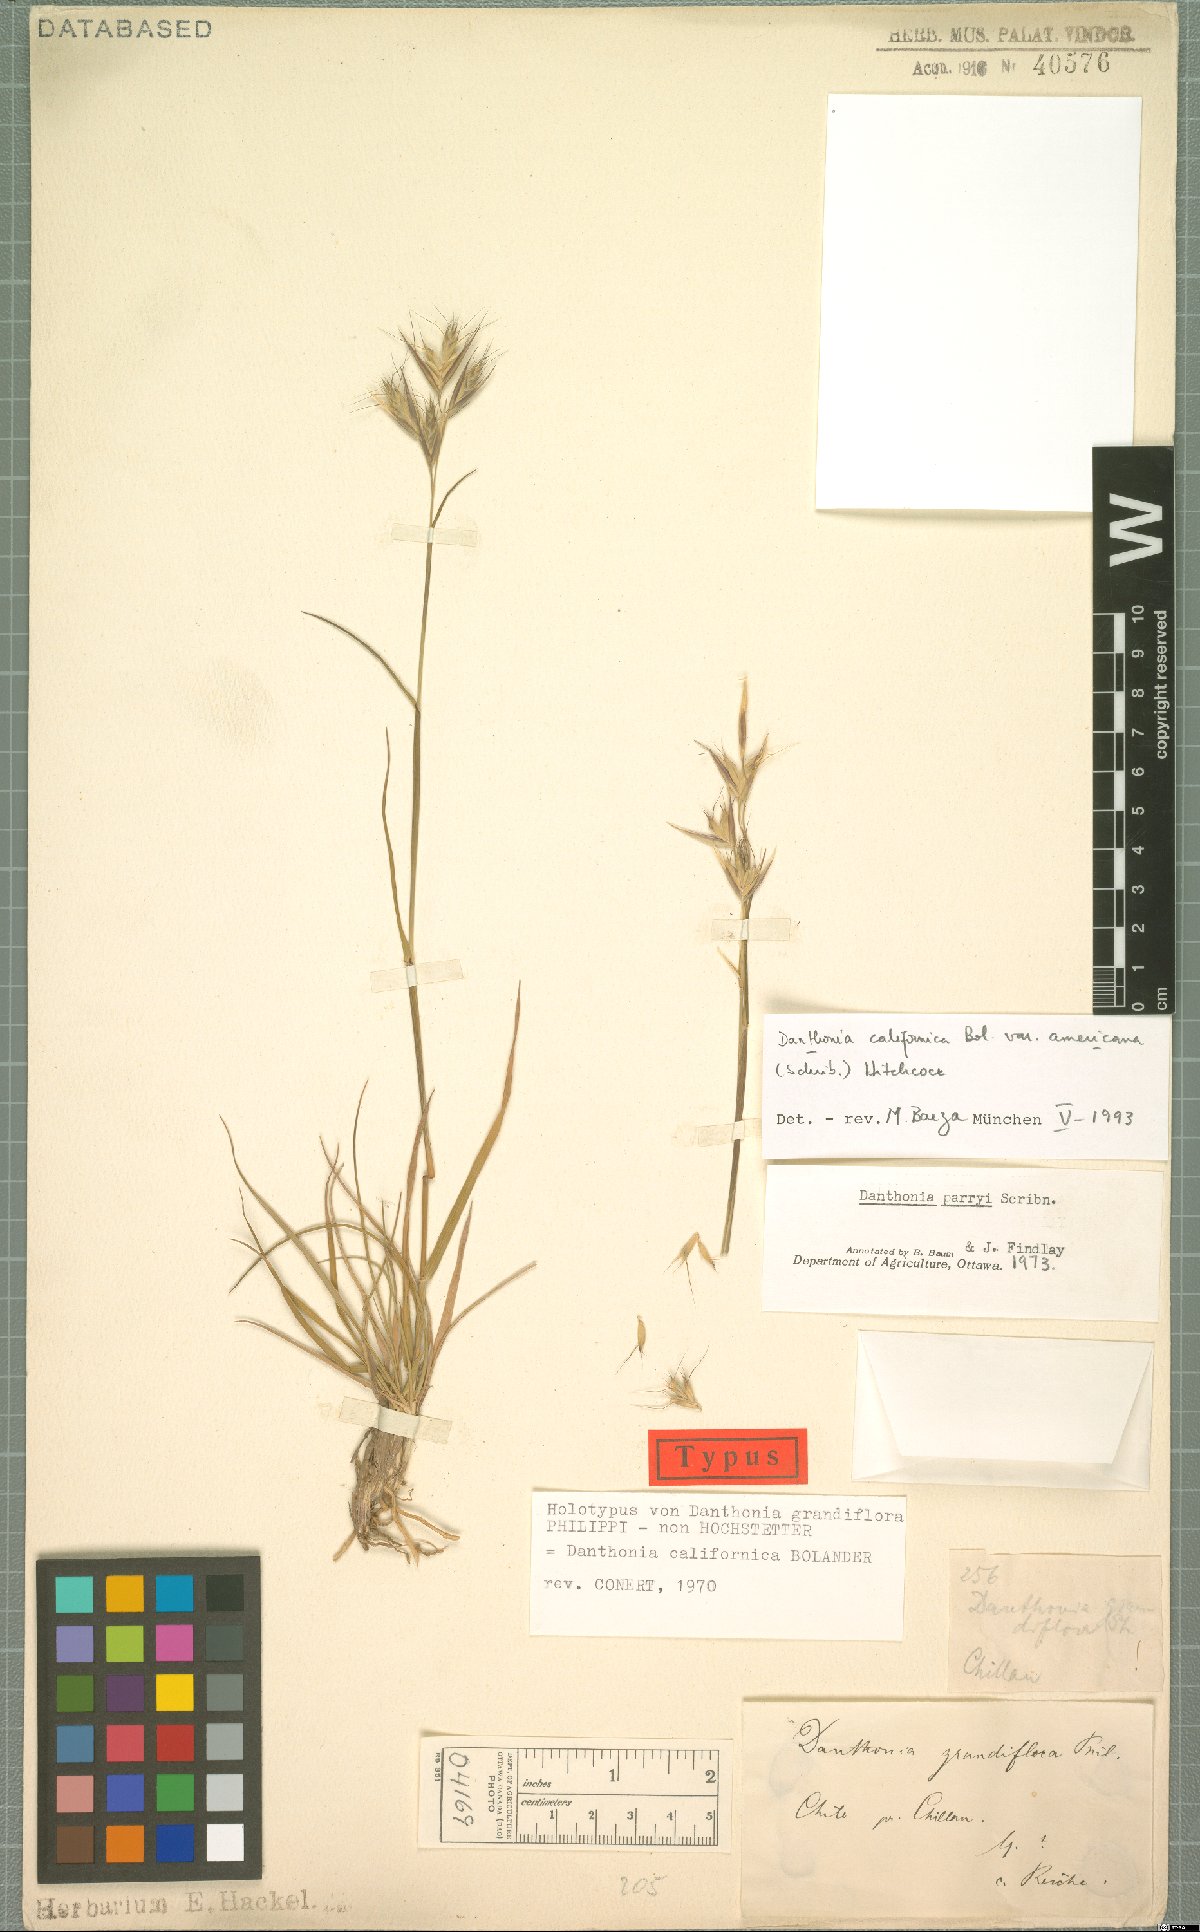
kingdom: Plantae
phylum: Tracheophyta
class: Liliopsida
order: Poales
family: Poaceae
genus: Danthonia
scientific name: Danthonia californica
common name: California oat grass
